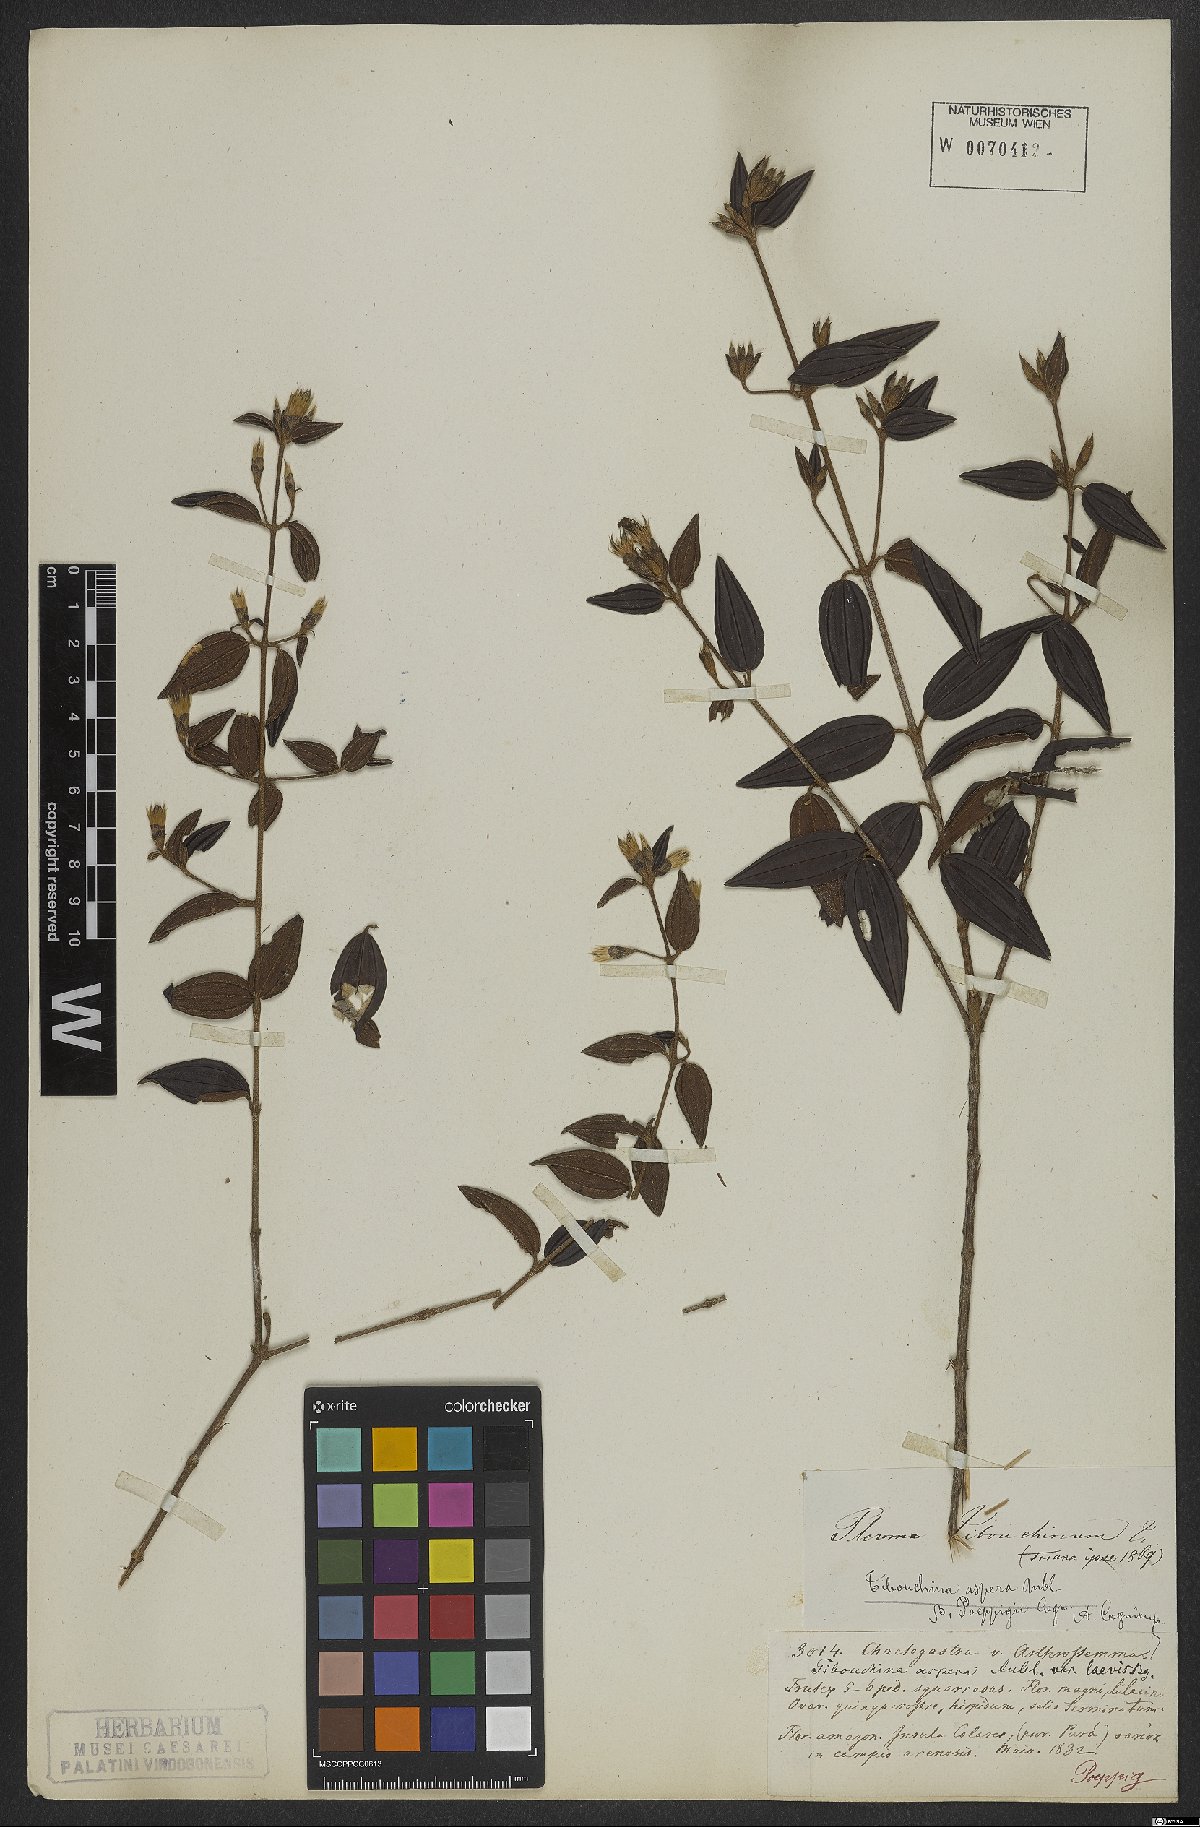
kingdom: Plantae
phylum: Tracheophyta
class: Magnoliopsida
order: Myrtales
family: Melastomataceae
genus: Tibouchina
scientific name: Tibouchina aspera
